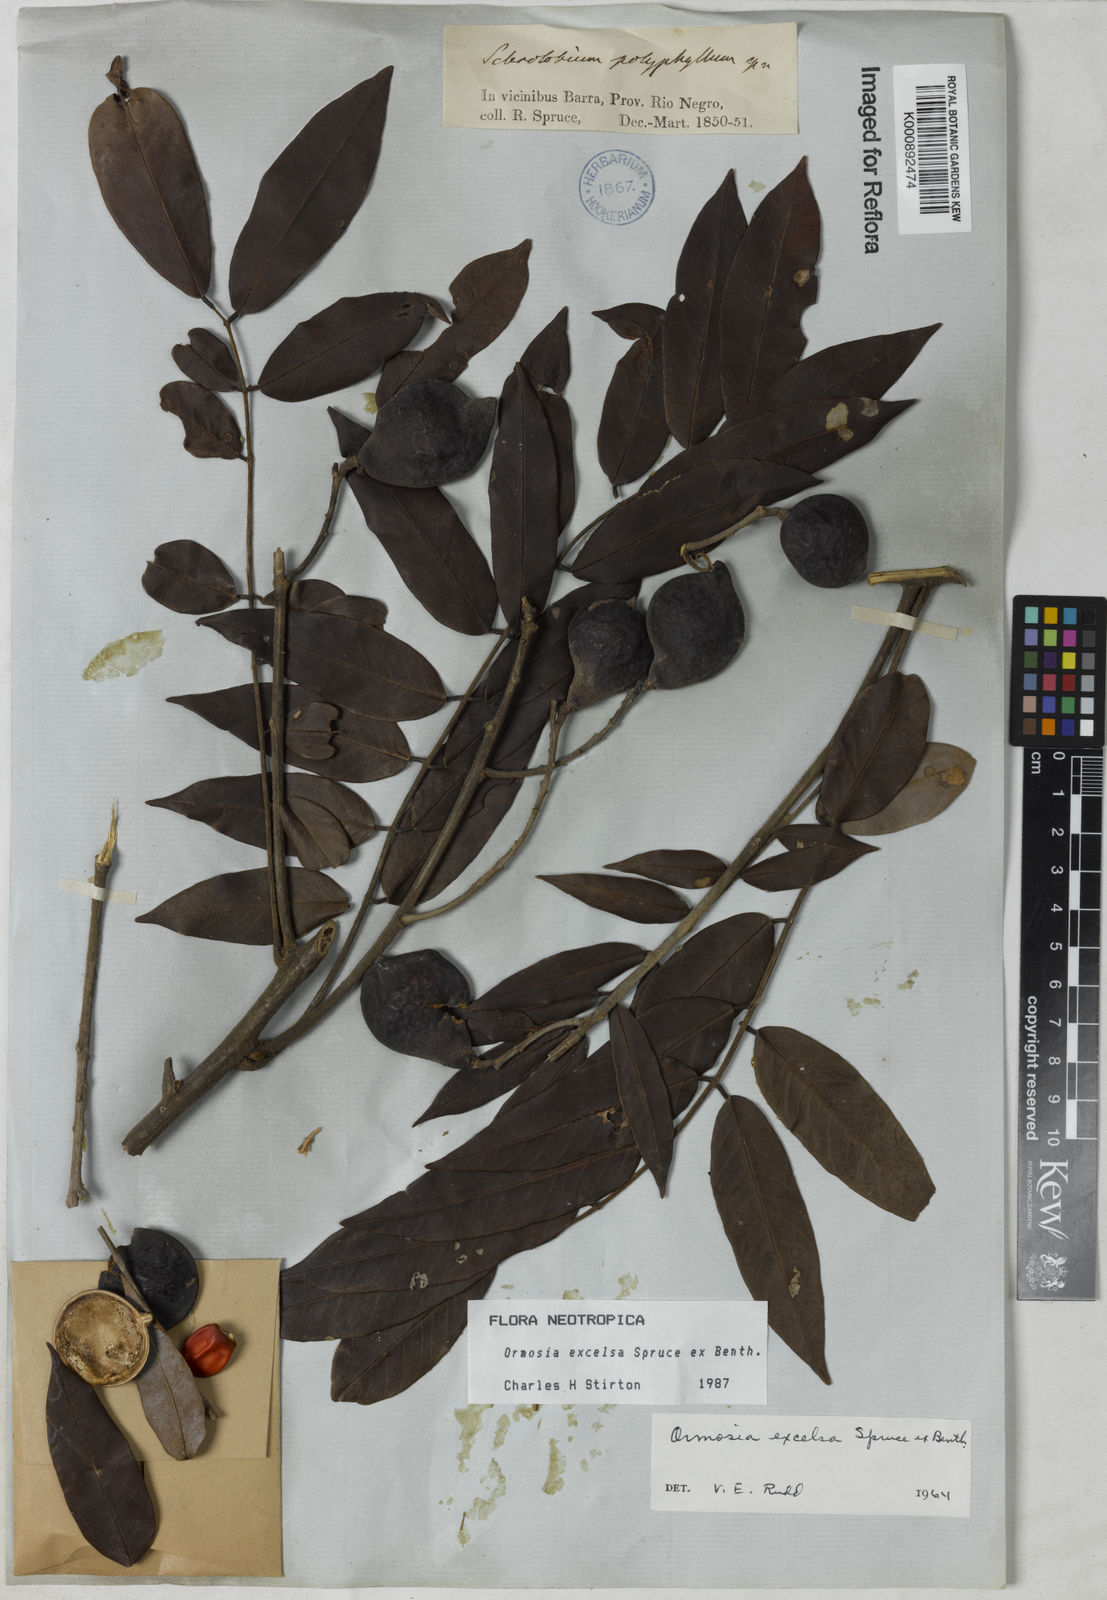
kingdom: Plantae
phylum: Tracheophyta
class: Magnoliopsida
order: Fabales
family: Fabaceae
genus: Ormosia
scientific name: Ormosia excelsa
